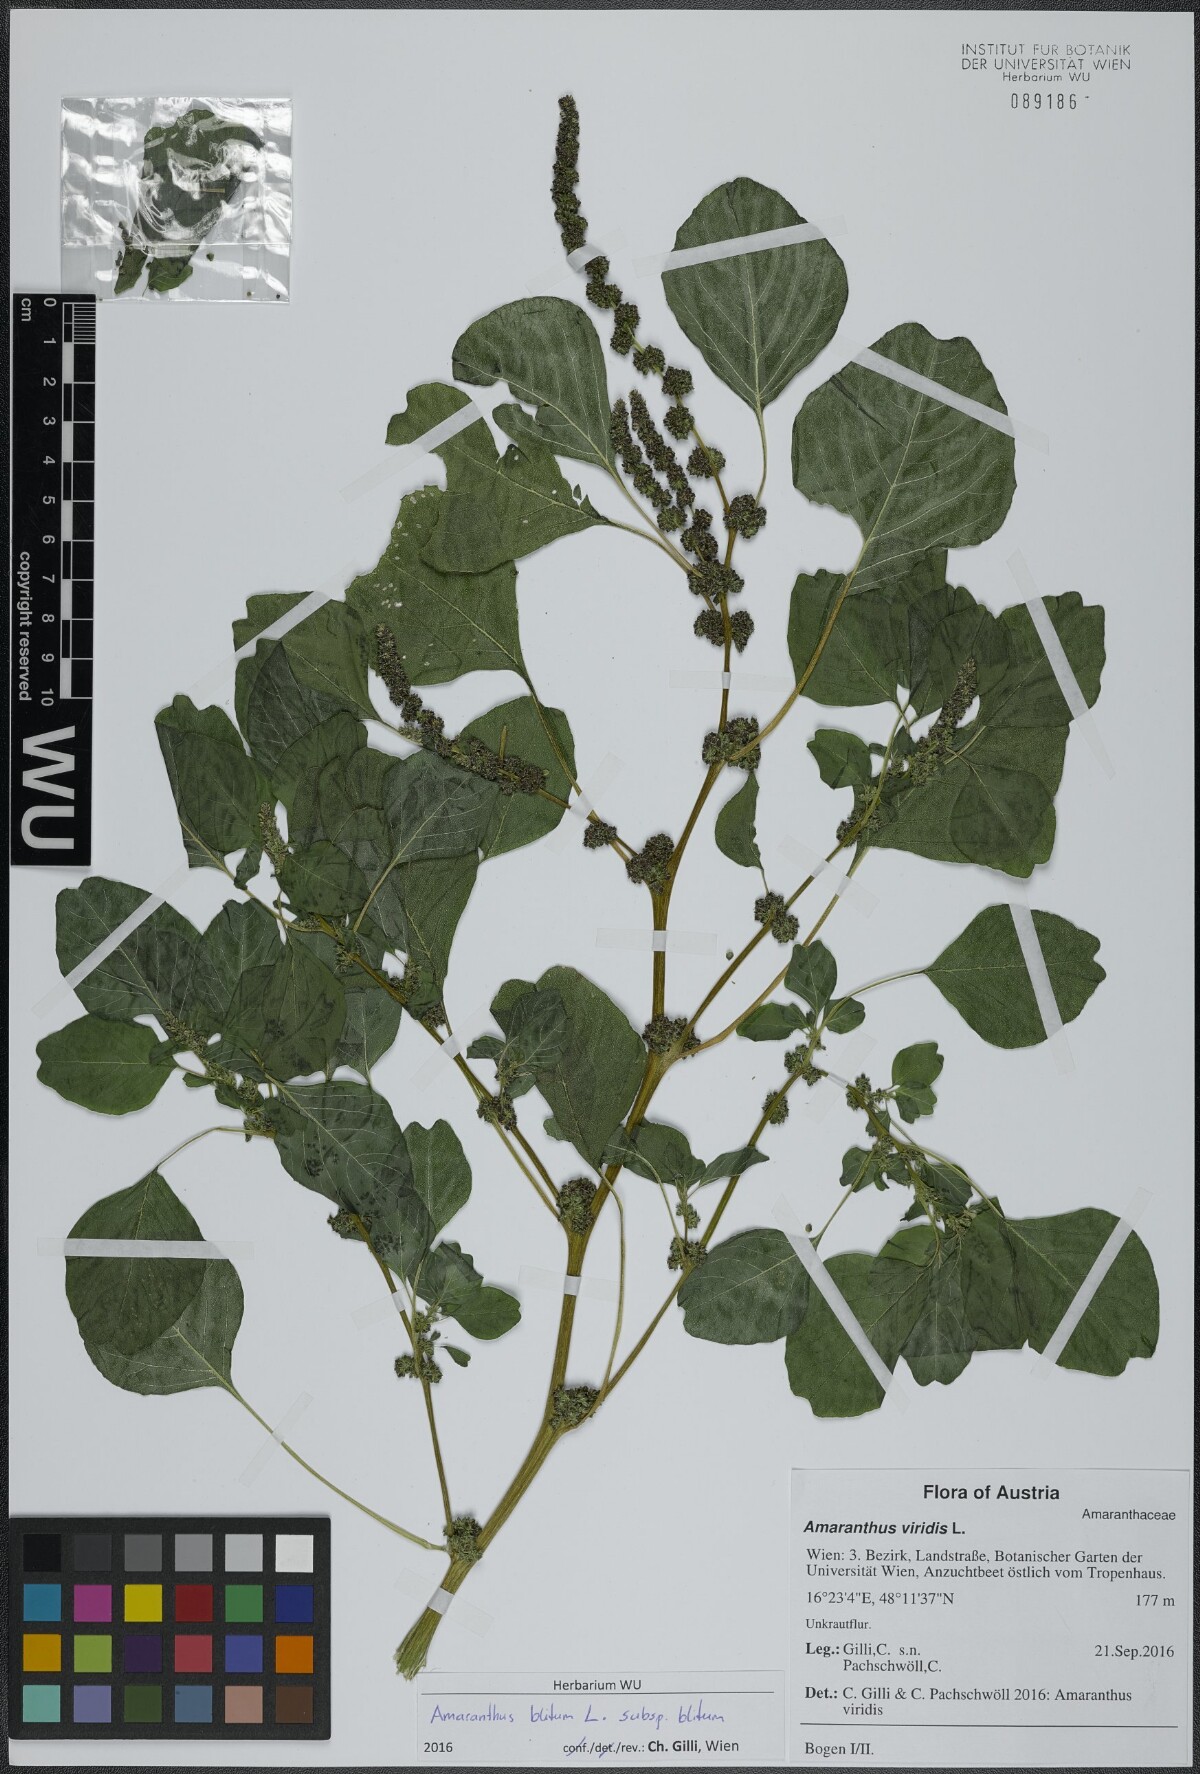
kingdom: Plantae
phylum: Tracheophyta
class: Magnoliopsida
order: Caryophyllales
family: Amaranthaceae
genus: Amaranthus
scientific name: Amaranthus blitum
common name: Purple amaranth
